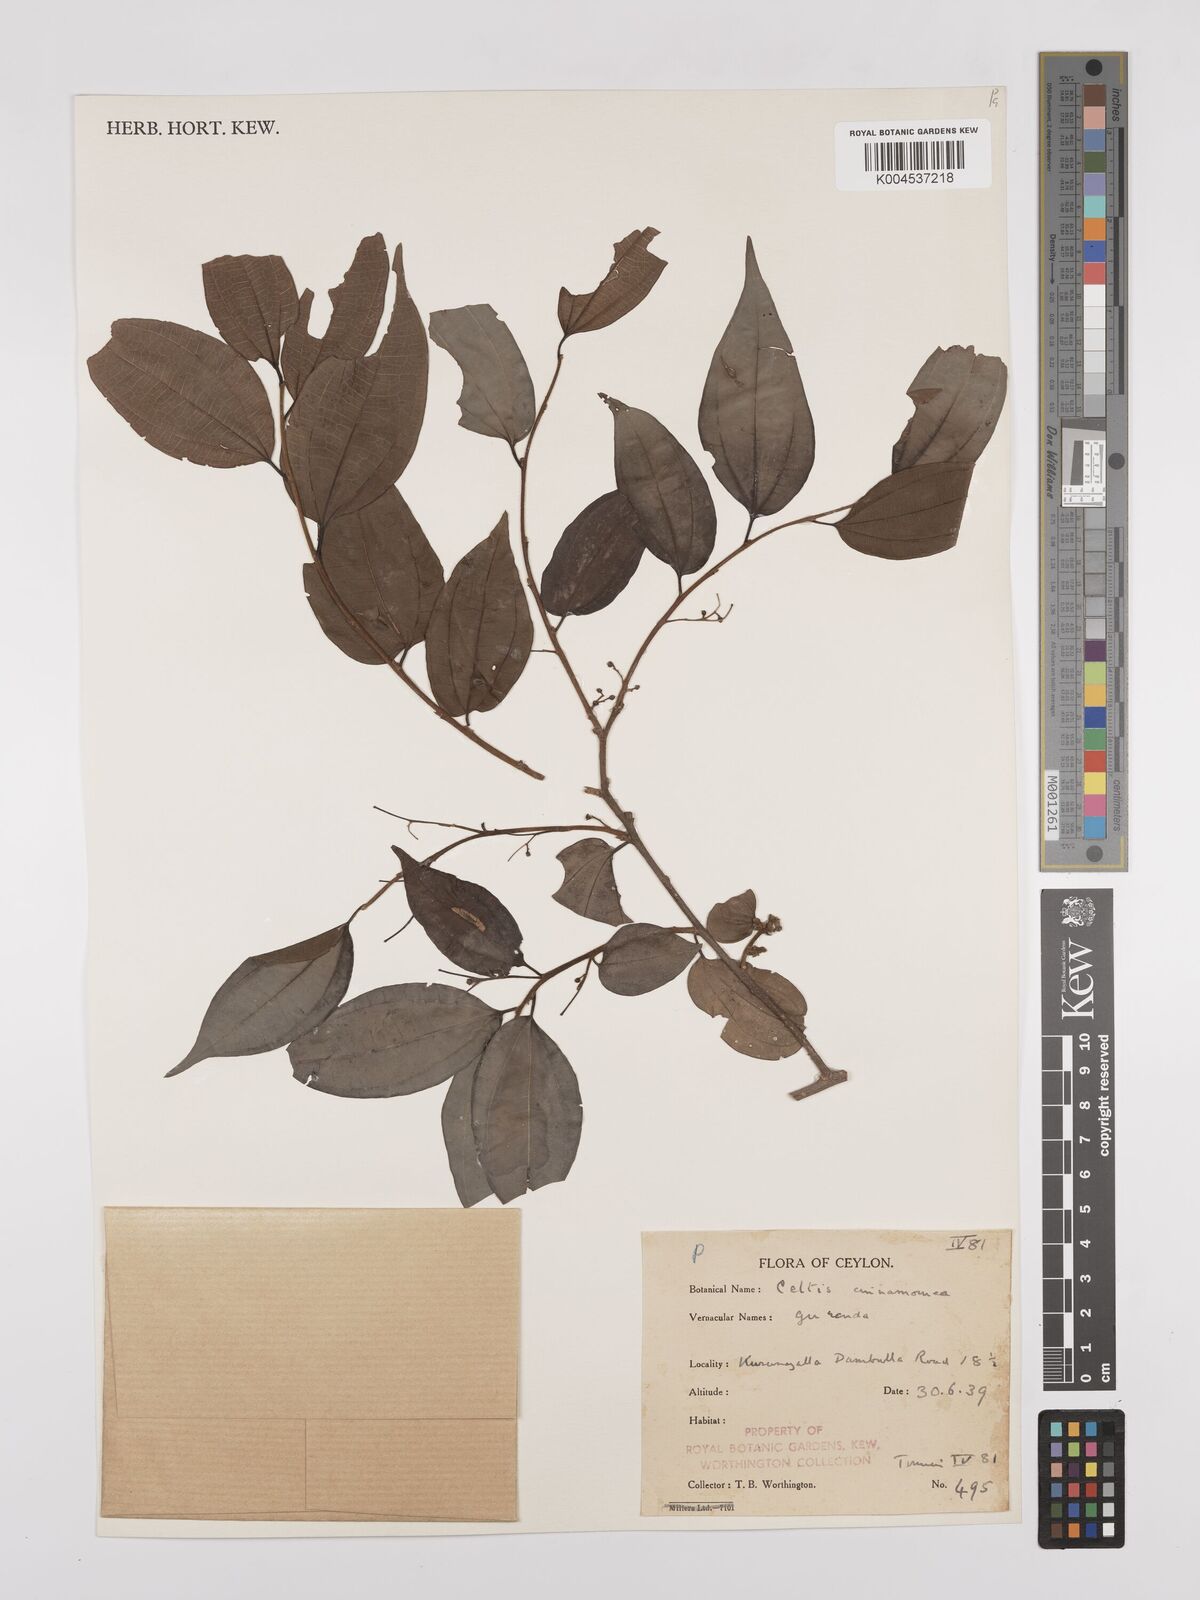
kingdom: Plantae
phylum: Tracheophyta
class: Magnoliopsida
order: Rosales
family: Cannabaceae
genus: Celtis
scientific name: Celtis timorensis
